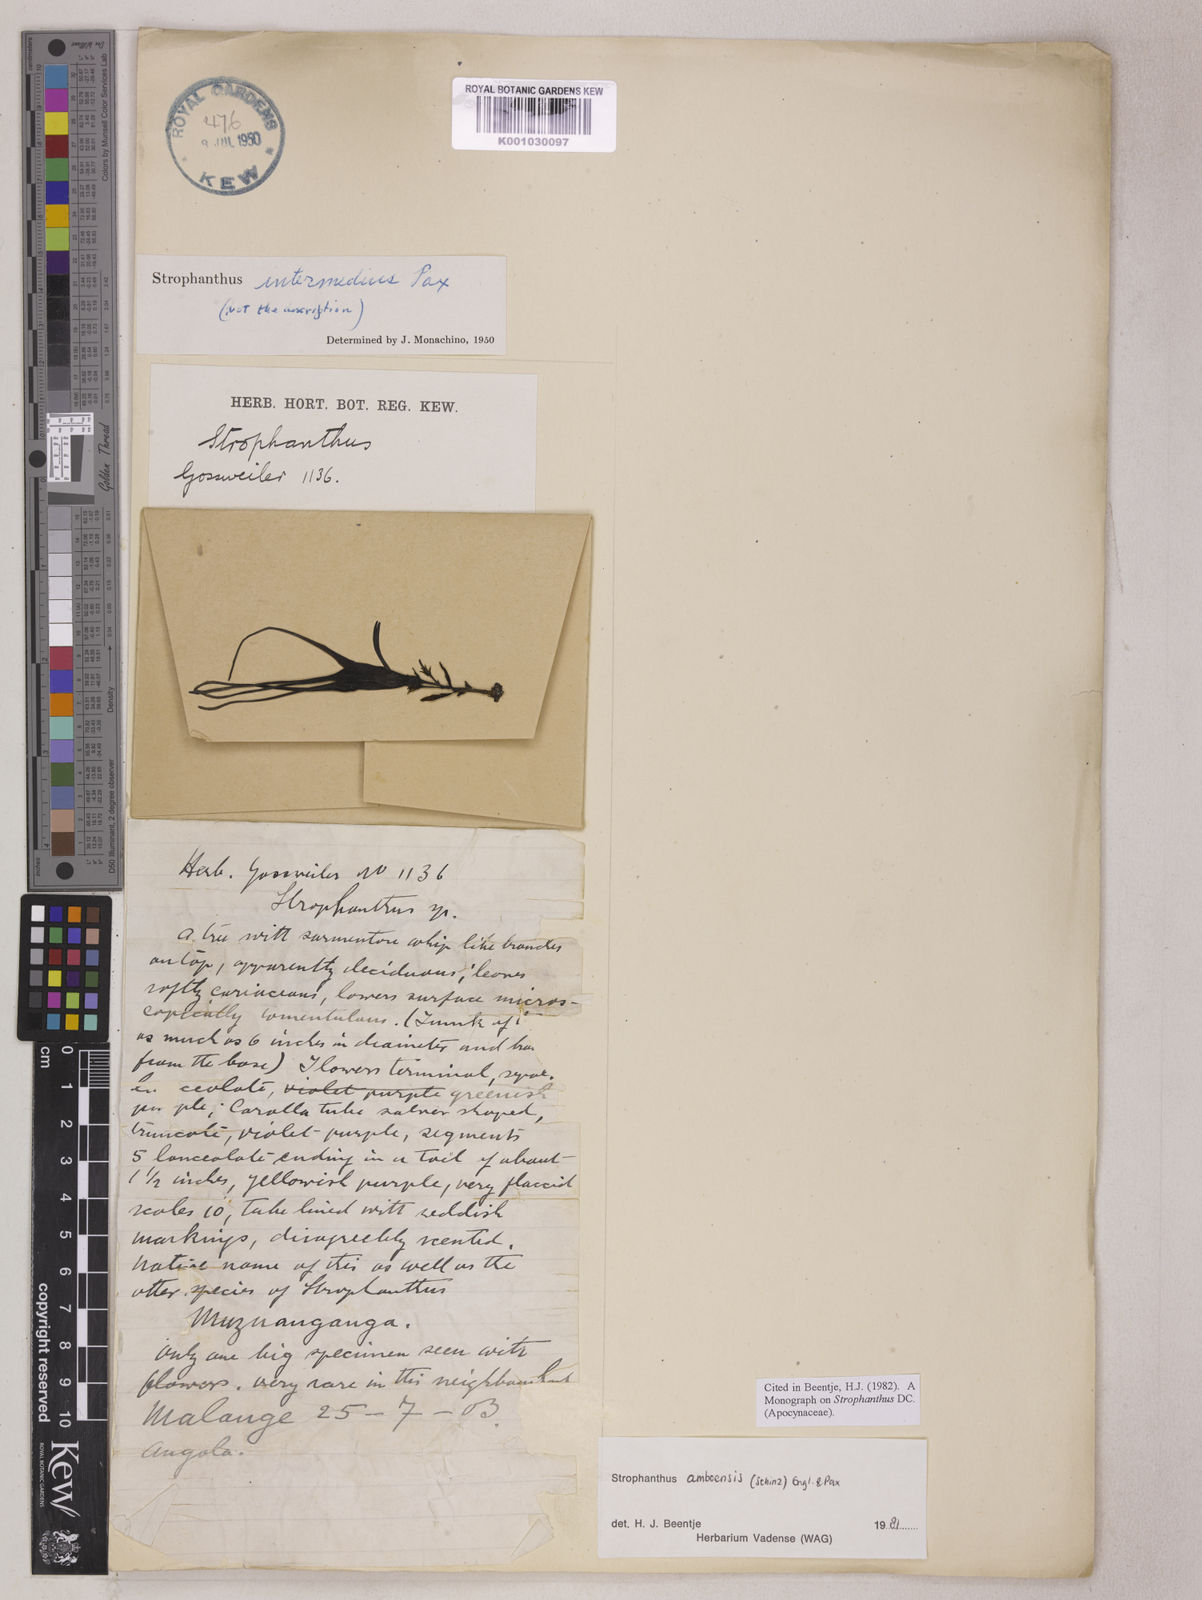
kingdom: Plantae
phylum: Tracheophyta
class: Magnoliopsida
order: Gentianales
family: Apocynaceae
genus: Strophanthus
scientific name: Strophanthus amboensis
